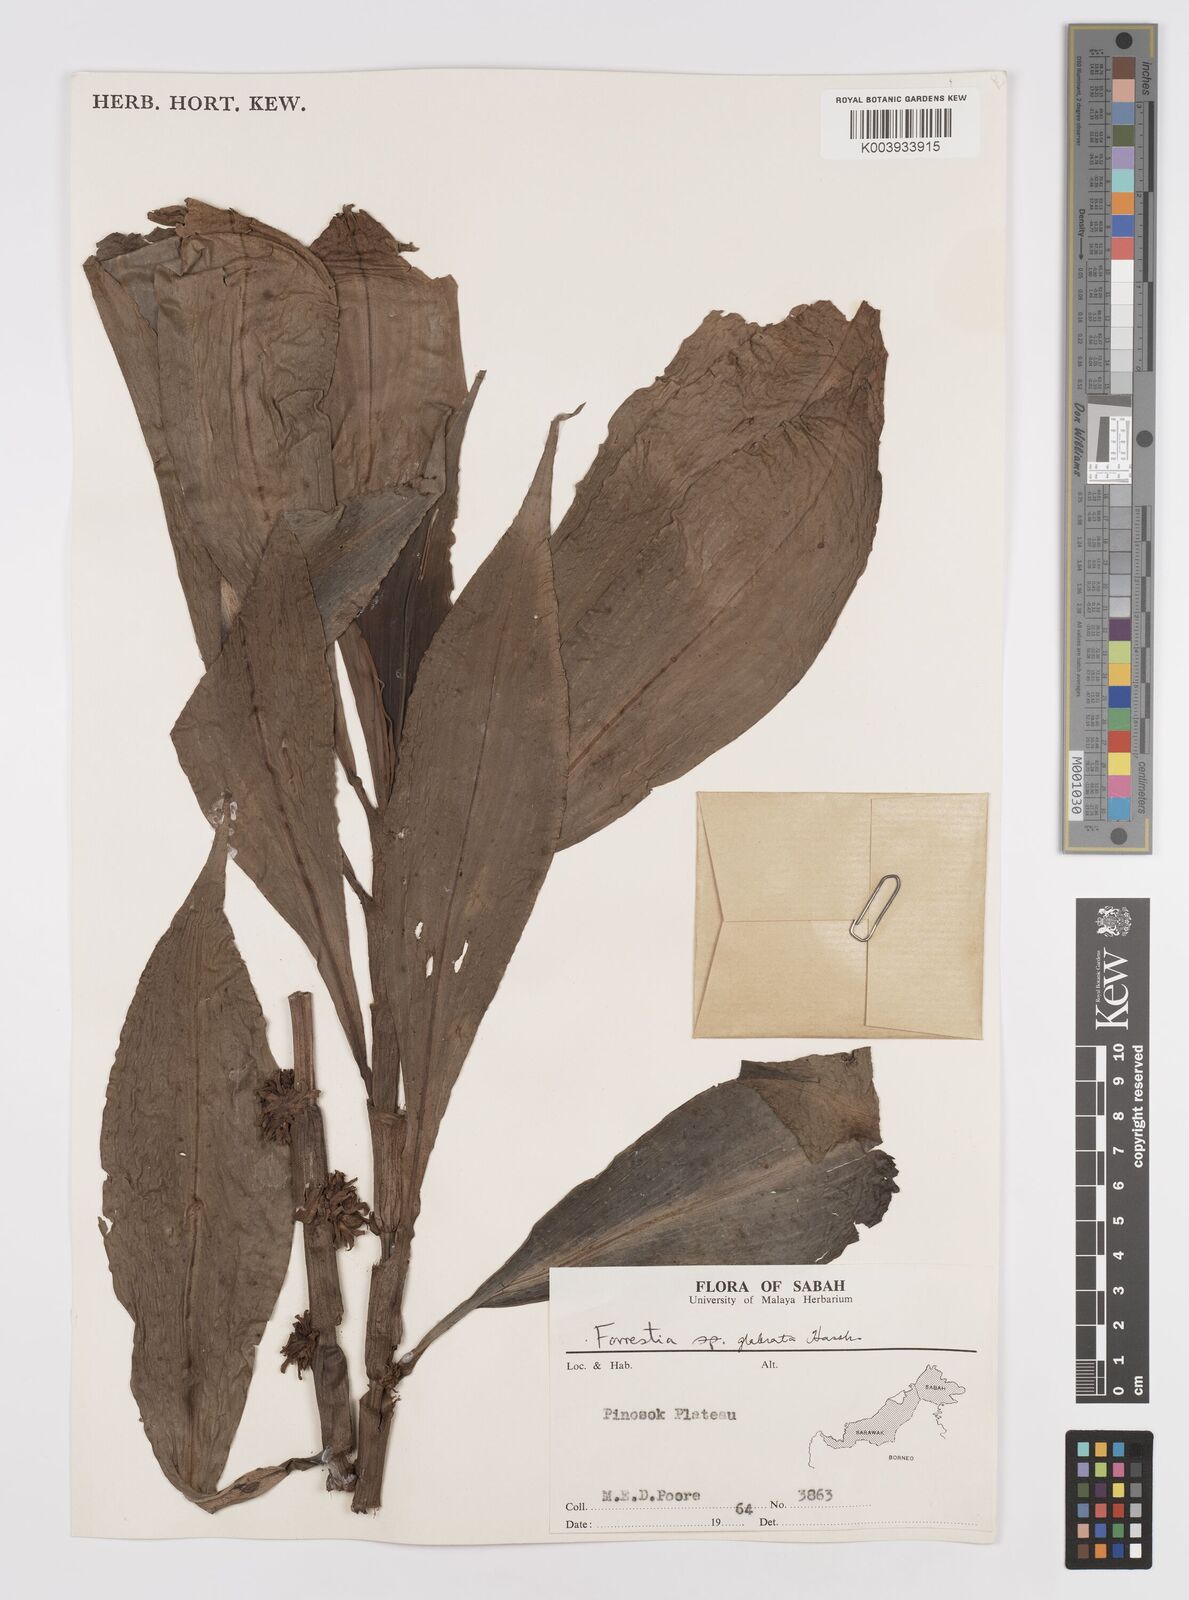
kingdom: Plantae
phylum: Tracheophyta
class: Liliopsida
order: Commelinales
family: Commelinaceae
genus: Amischotolype
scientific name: Amischotolype glabrata
